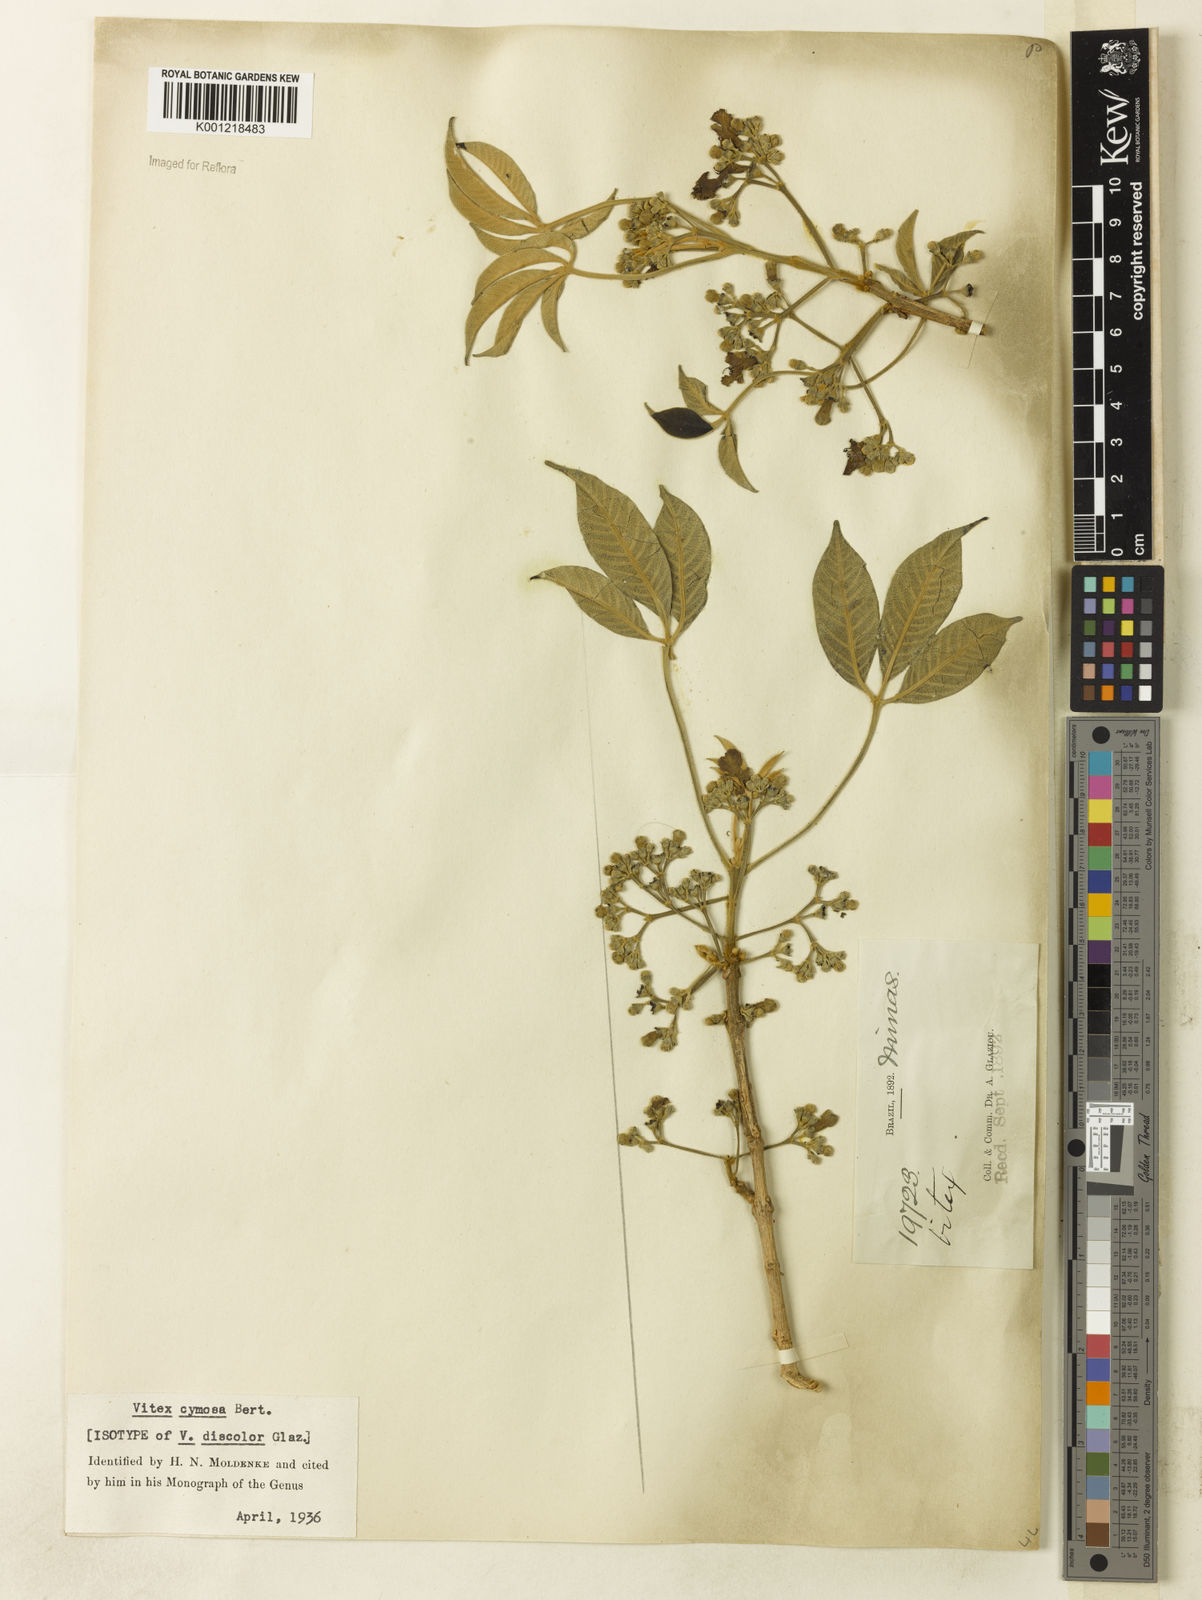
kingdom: Plantae
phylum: Tracheophyta
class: Magnoliopsida
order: Lamiales
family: Lamiaceae
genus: Vitex
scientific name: Vitex cymosa
